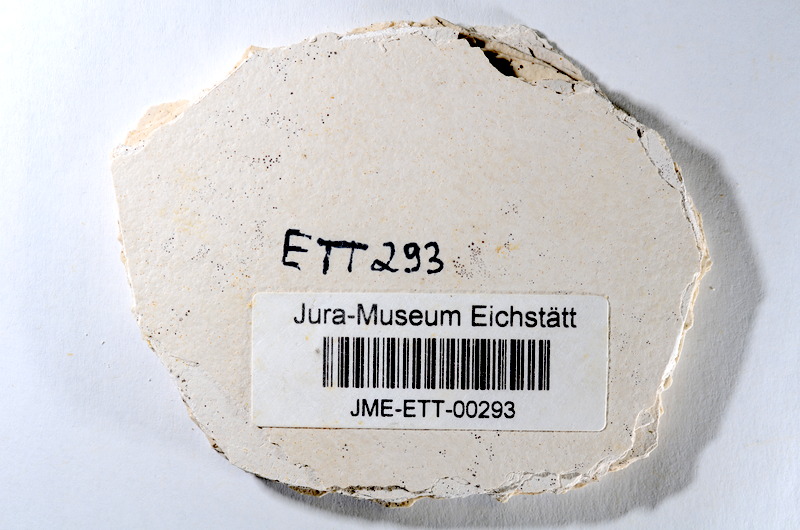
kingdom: Animalia
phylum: Chordata
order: Salmoniformes
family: Orthogonikleithridae
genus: Orthogonikleithrus
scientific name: Orthogonikleithrus hoelli
